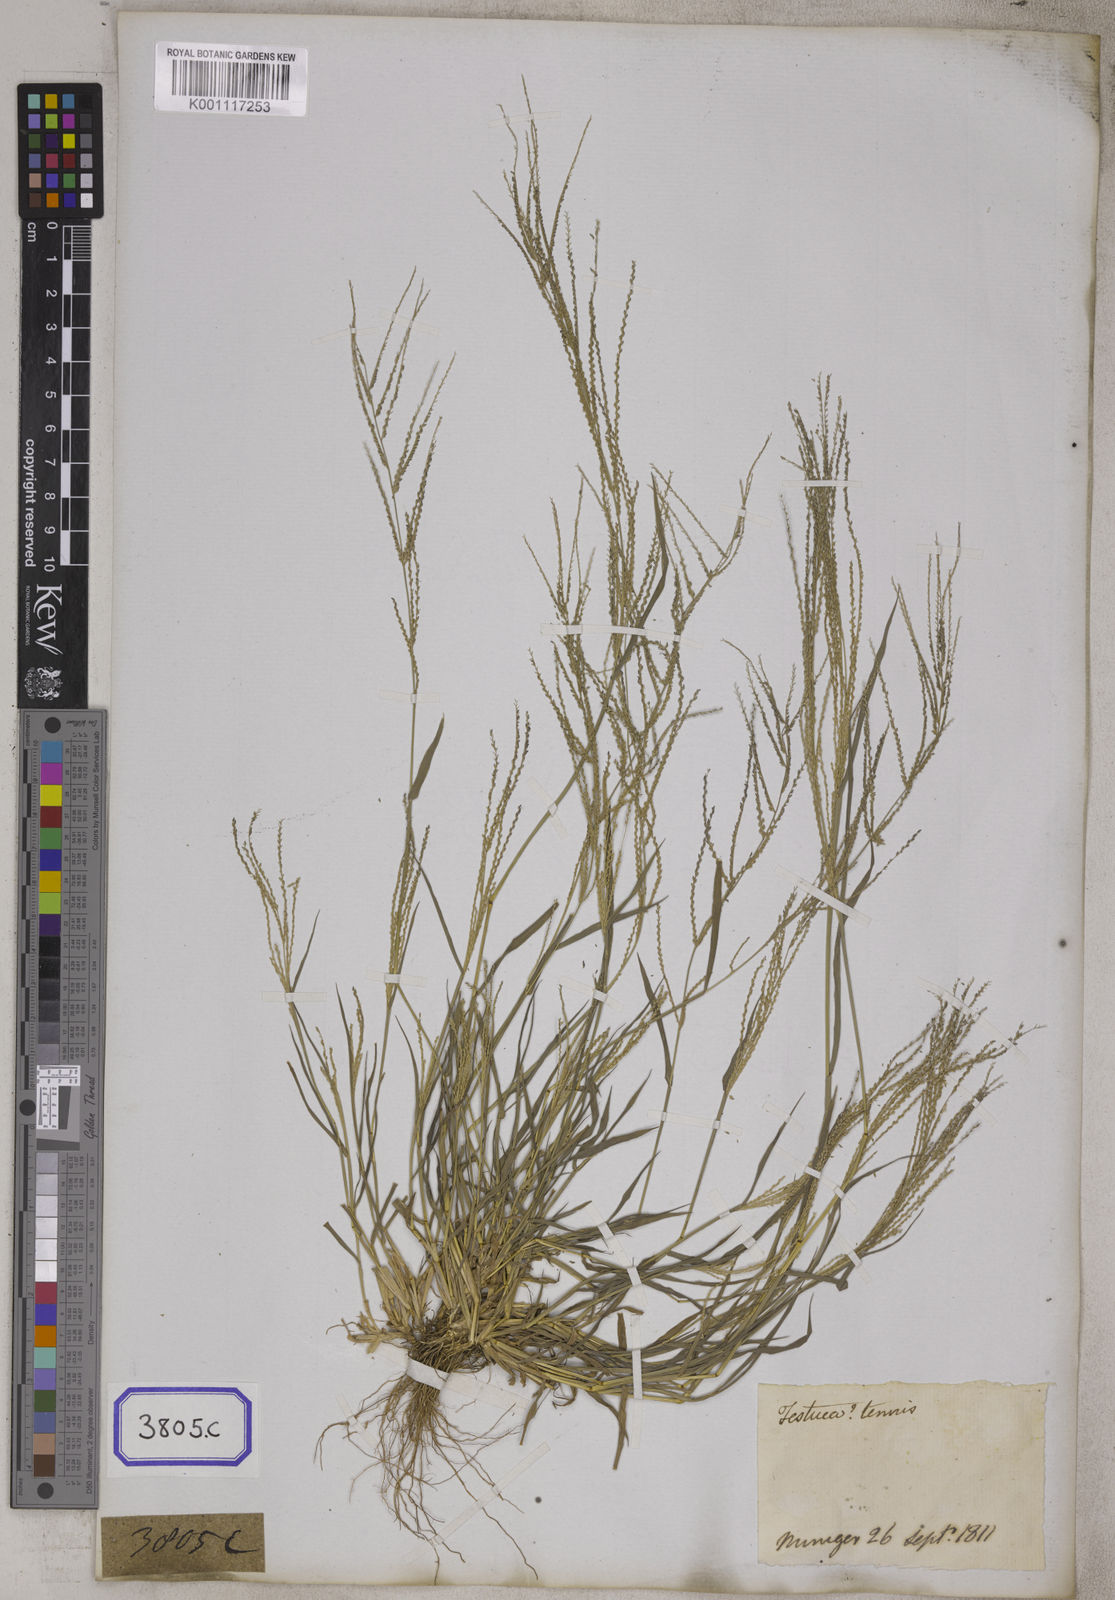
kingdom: Plantae
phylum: Tracheophyta
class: Liliopsida
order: Poales
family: Poaceae
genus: Leptochloa
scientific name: Leptochloa
